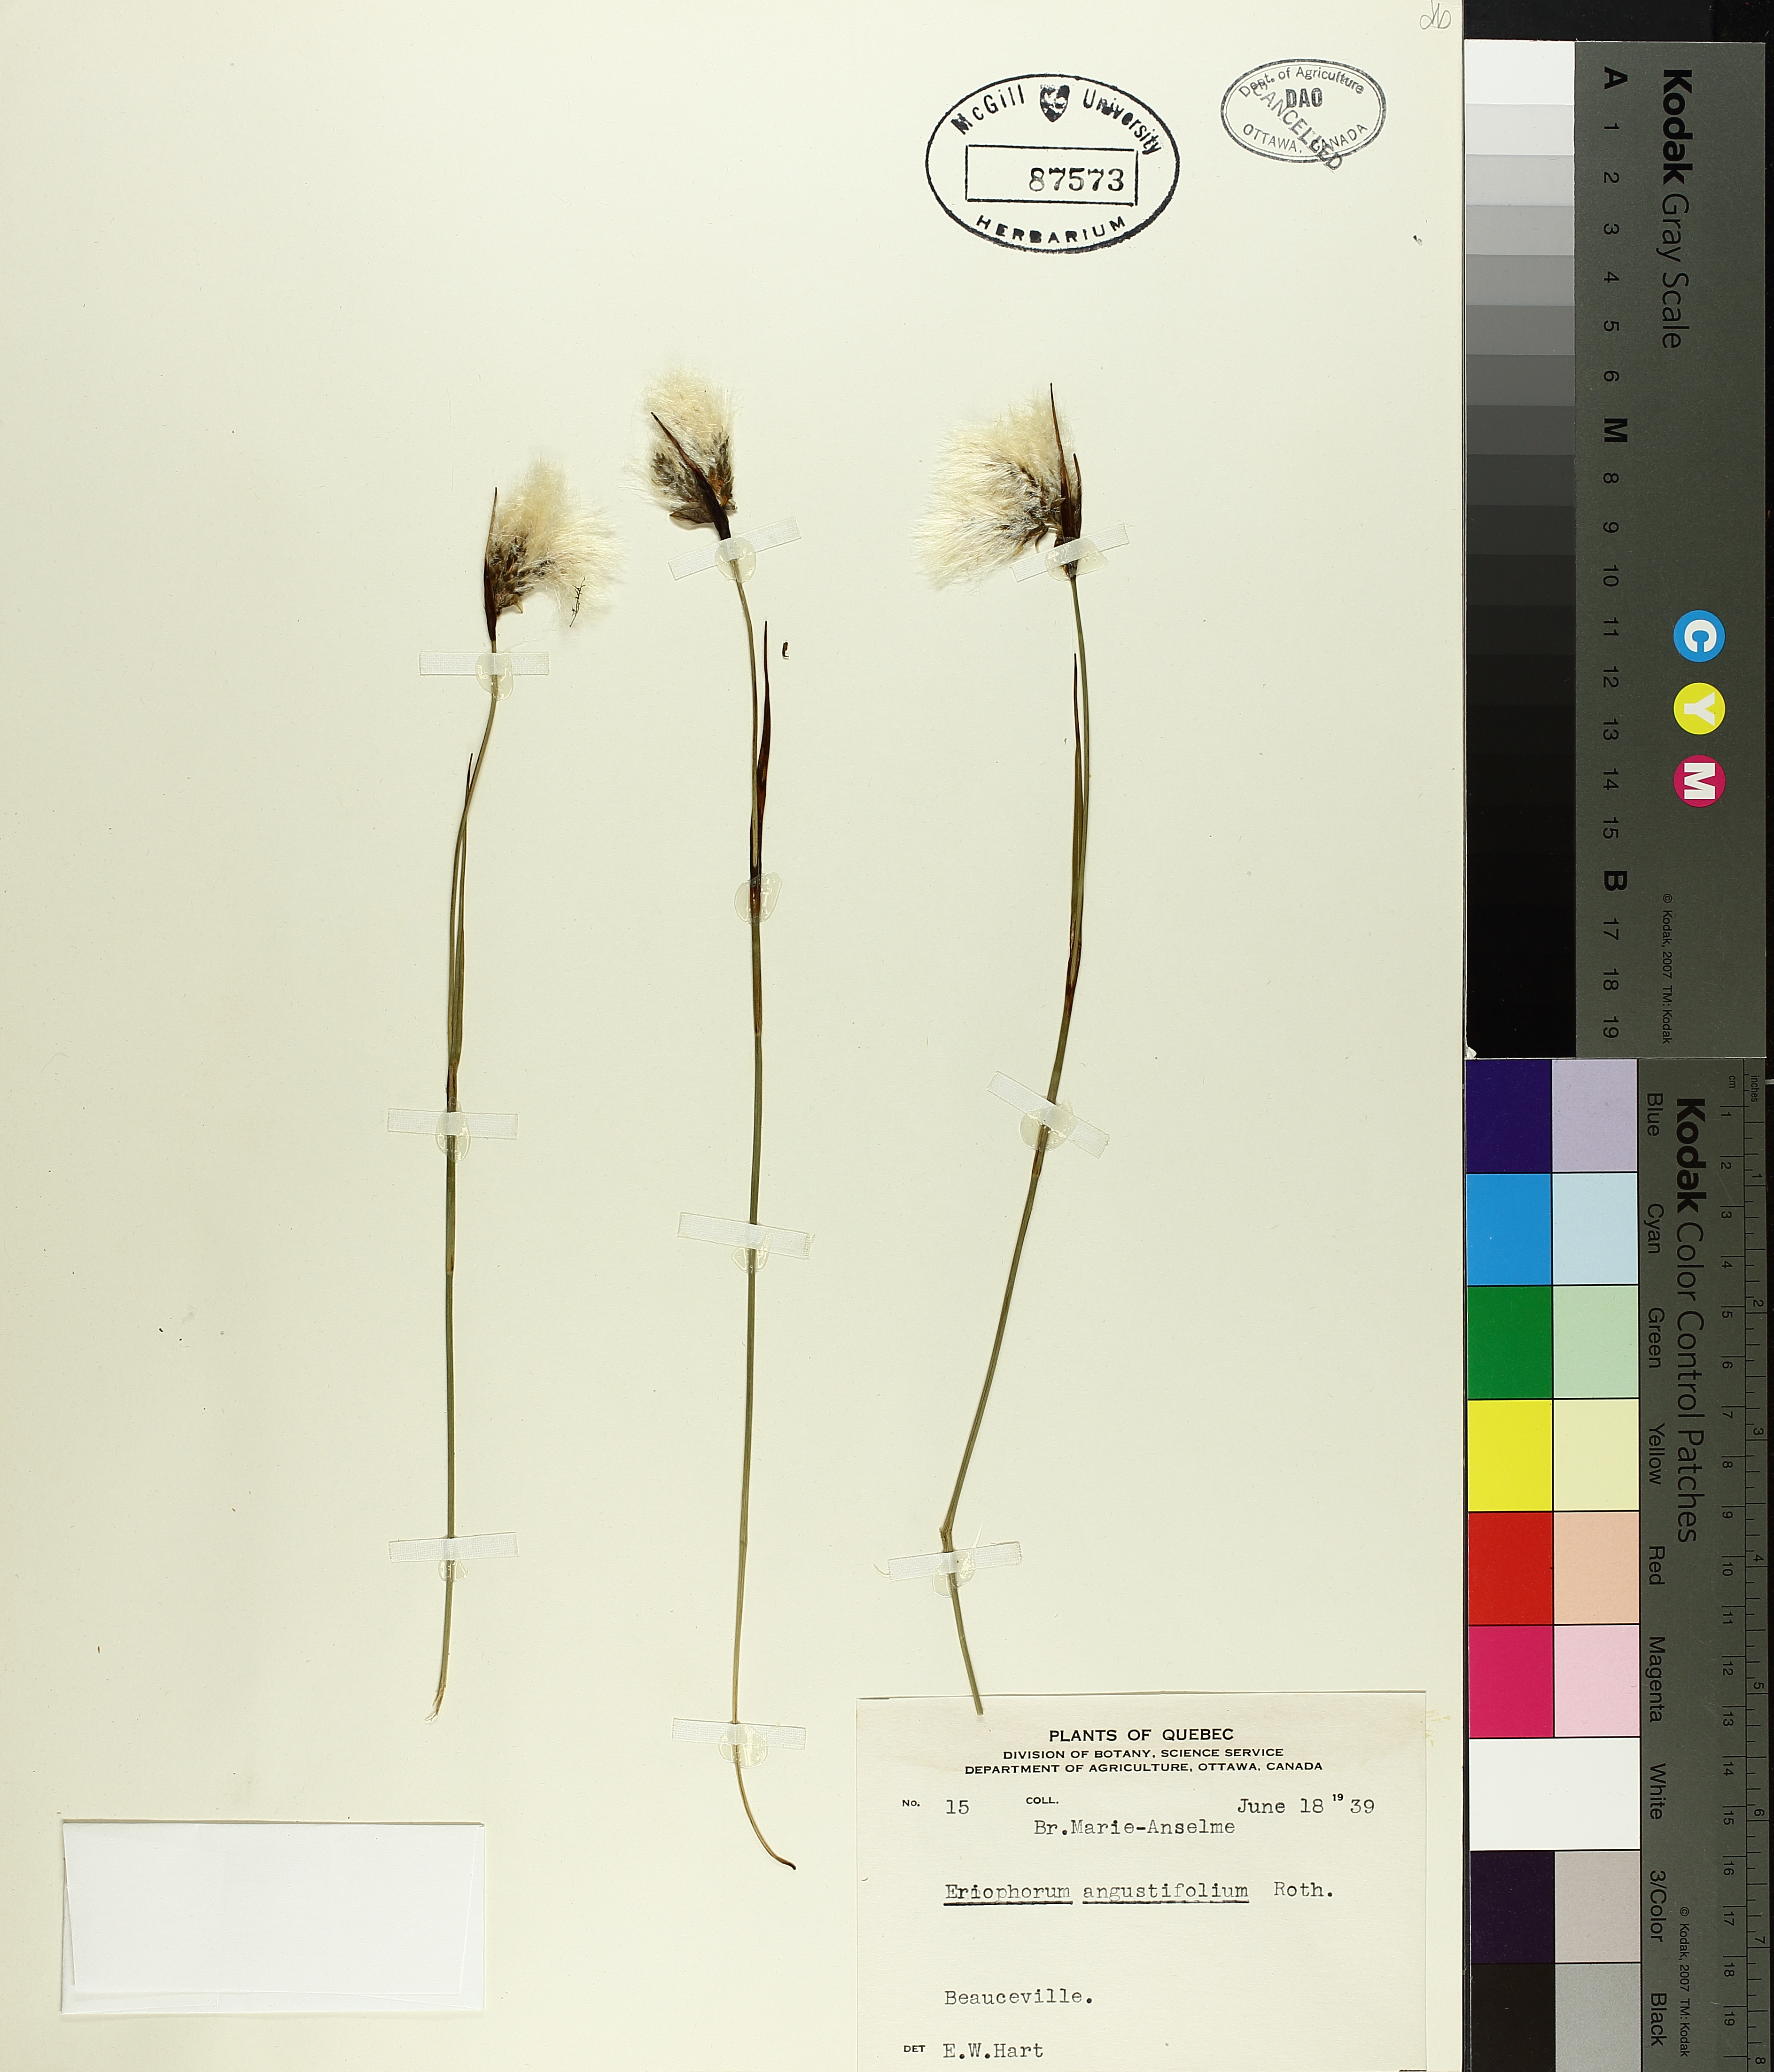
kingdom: Plantae
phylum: Tracheophyta
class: Liliopsida
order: Poales
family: Cyperaceae
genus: Eriophorum
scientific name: Eriophorum triste
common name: Tall cottongrass
